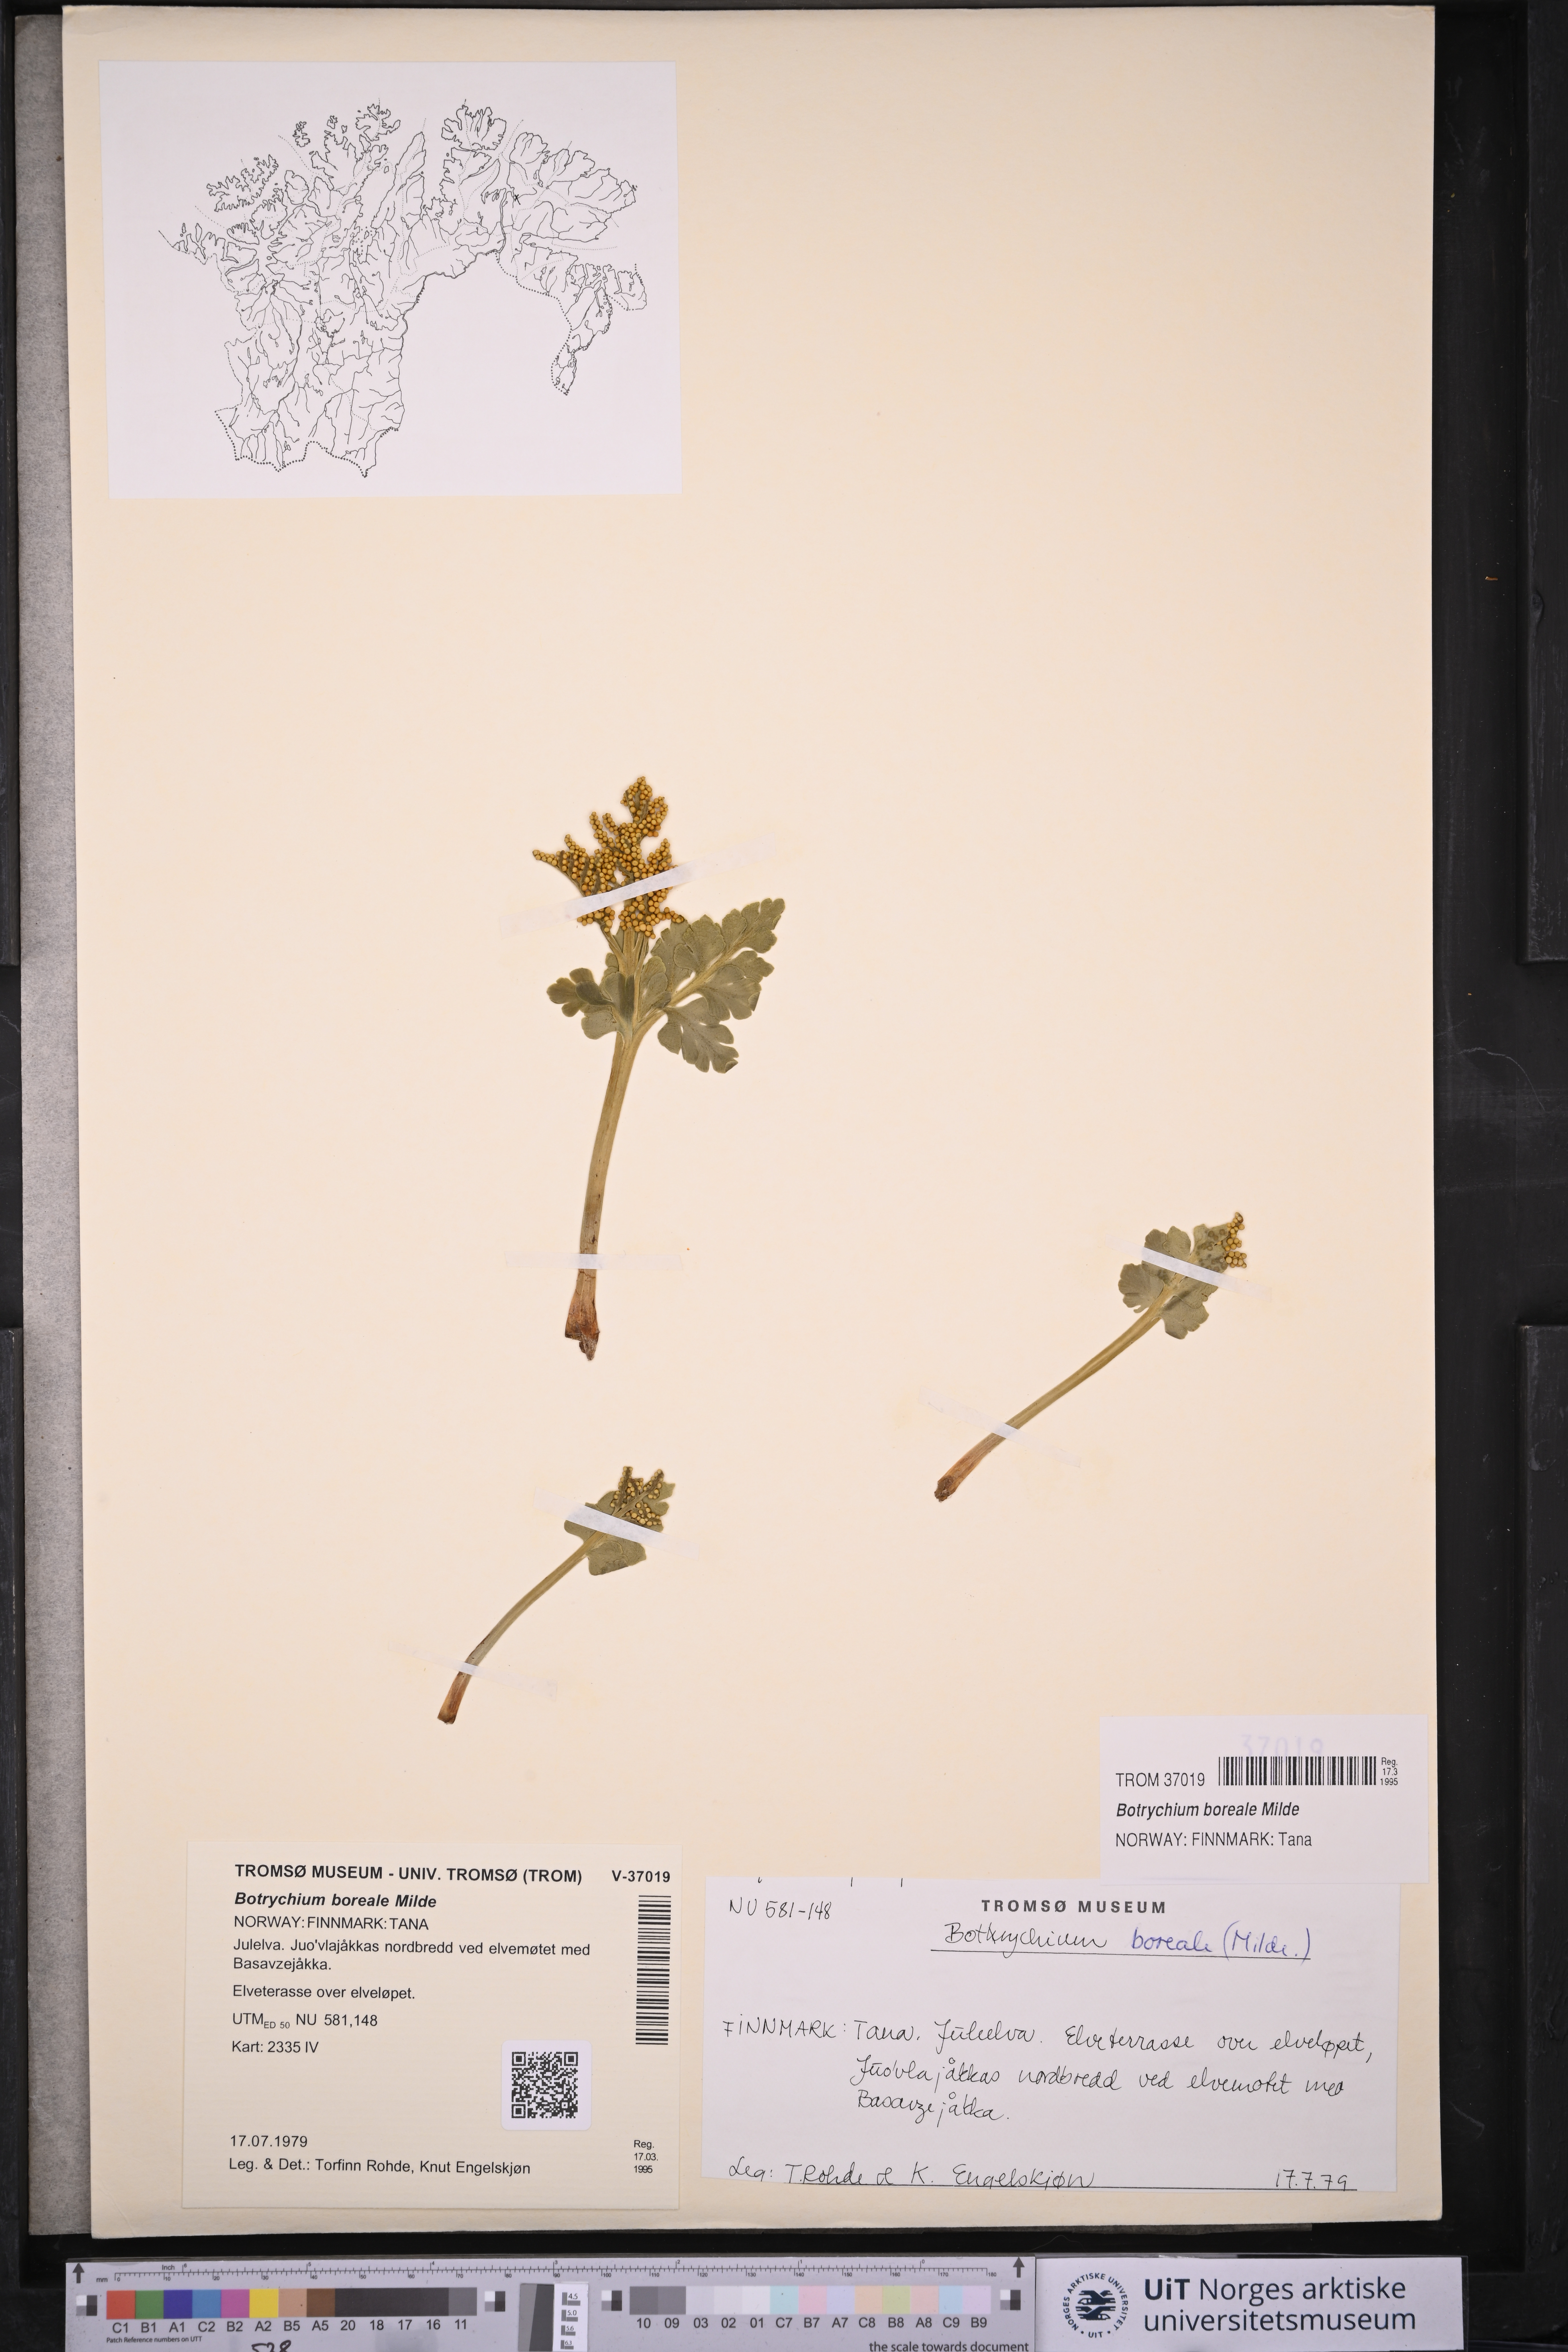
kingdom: Plantae
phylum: Tracheophyta
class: Polypodiopsida
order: Ophioglossales
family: Ophioglossaceae
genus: Botrychium
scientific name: Botrychium boreale
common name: Boreal moonwort
